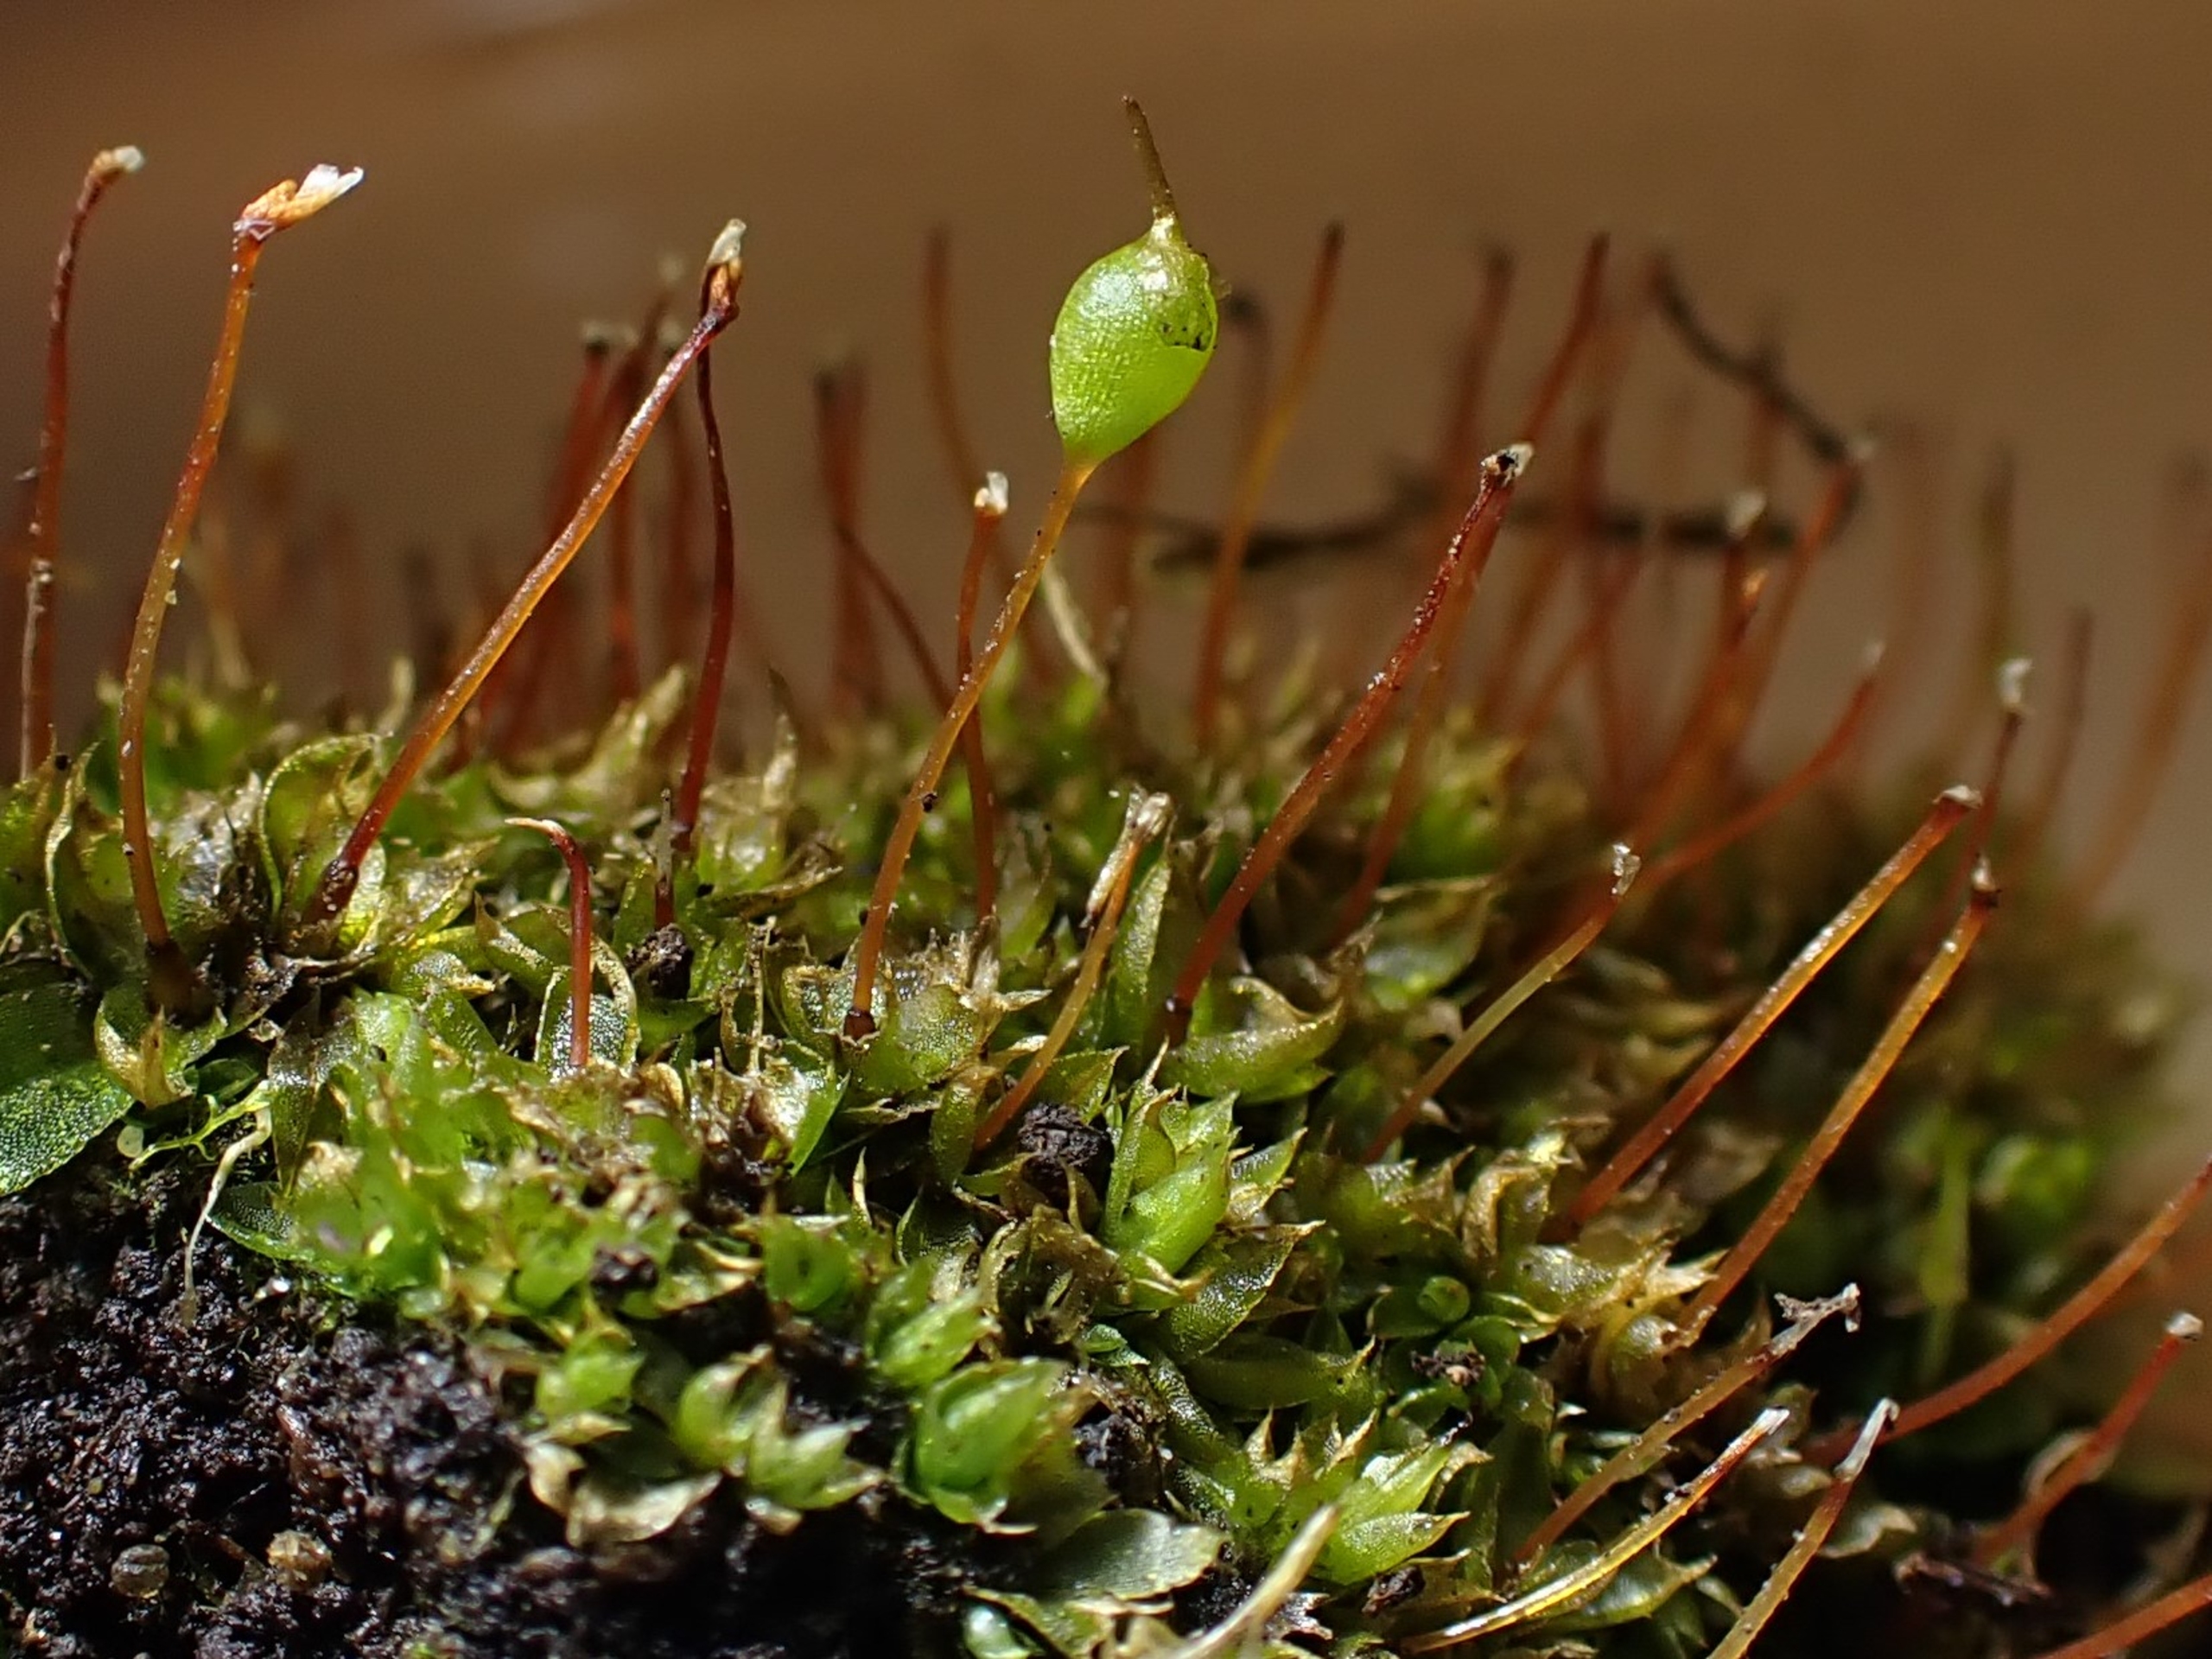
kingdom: Plantae
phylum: Bryophyta
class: Bryopsida
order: Funariales
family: Funariaceae
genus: Physcomitrium
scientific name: Physcomitrium pyriforme
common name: Almindelig pærekapsel
